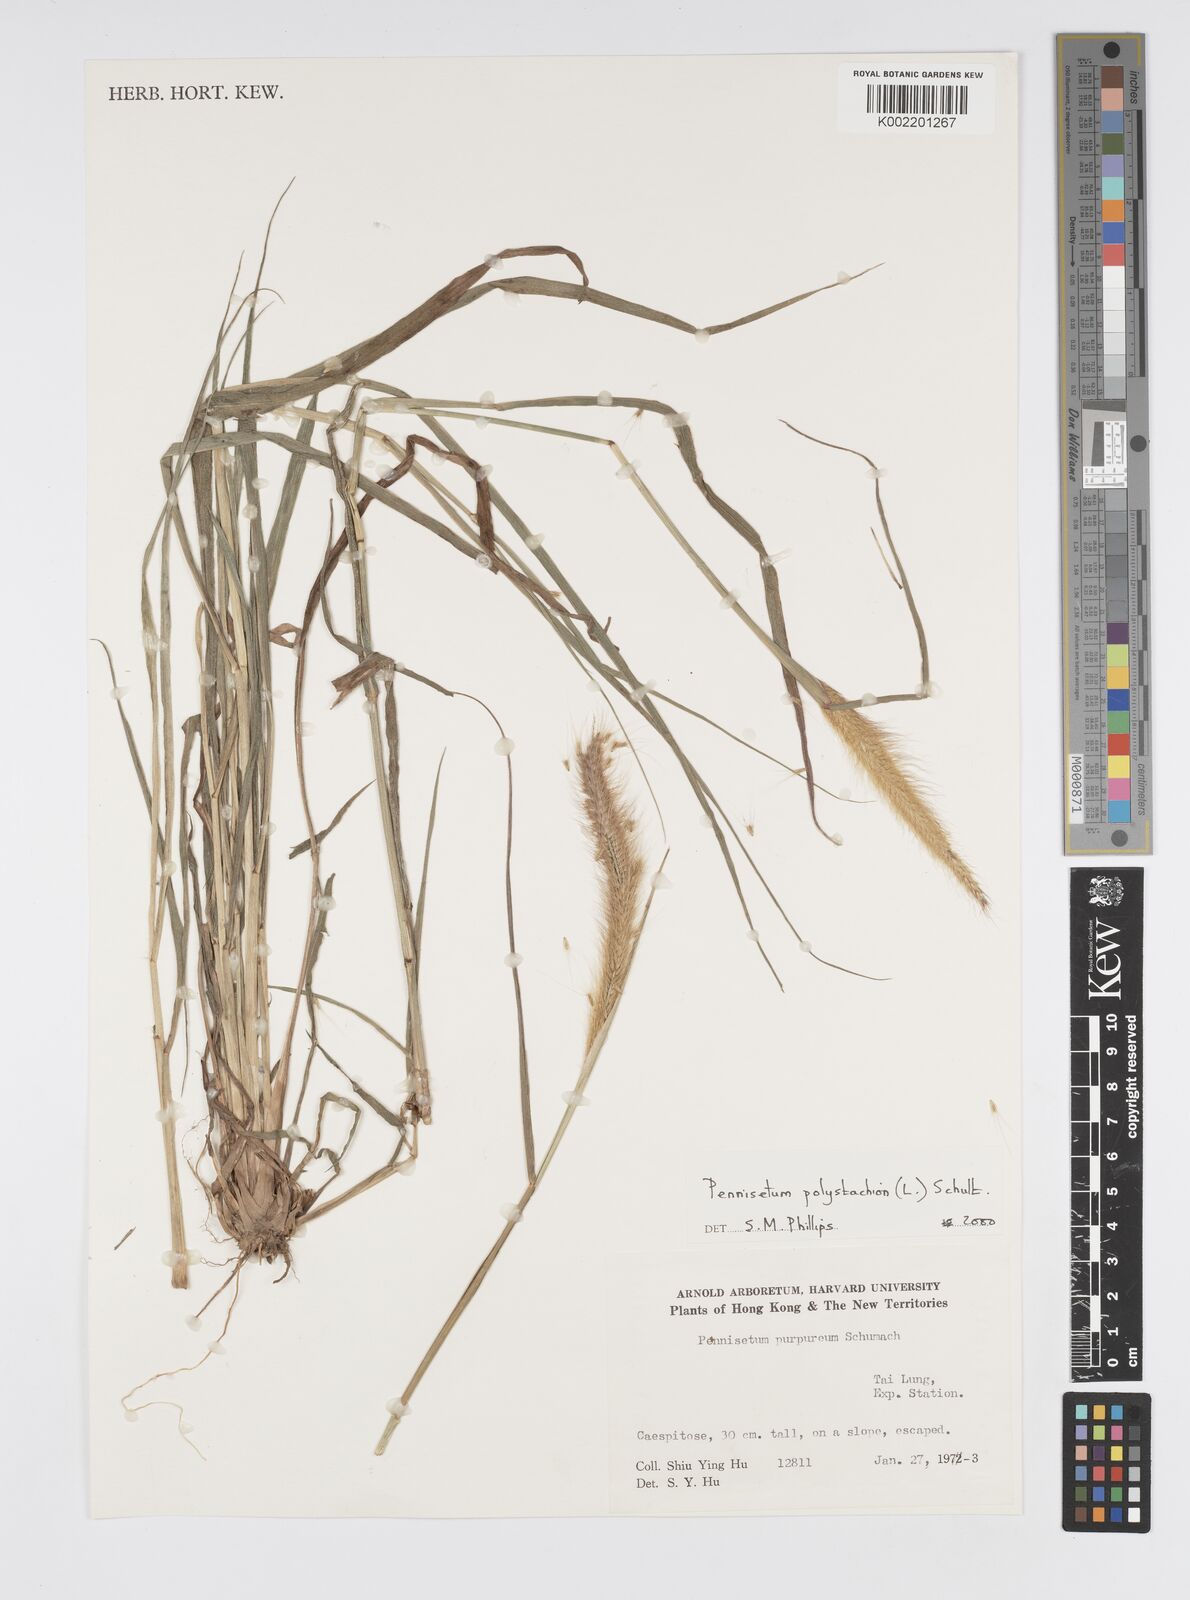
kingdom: Plantae
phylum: Tracheophyta
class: Liliopsida
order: Poales
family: Poaceae
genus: Setaria
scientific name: Setaria parviflora
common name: Knotroot bristle-grass
